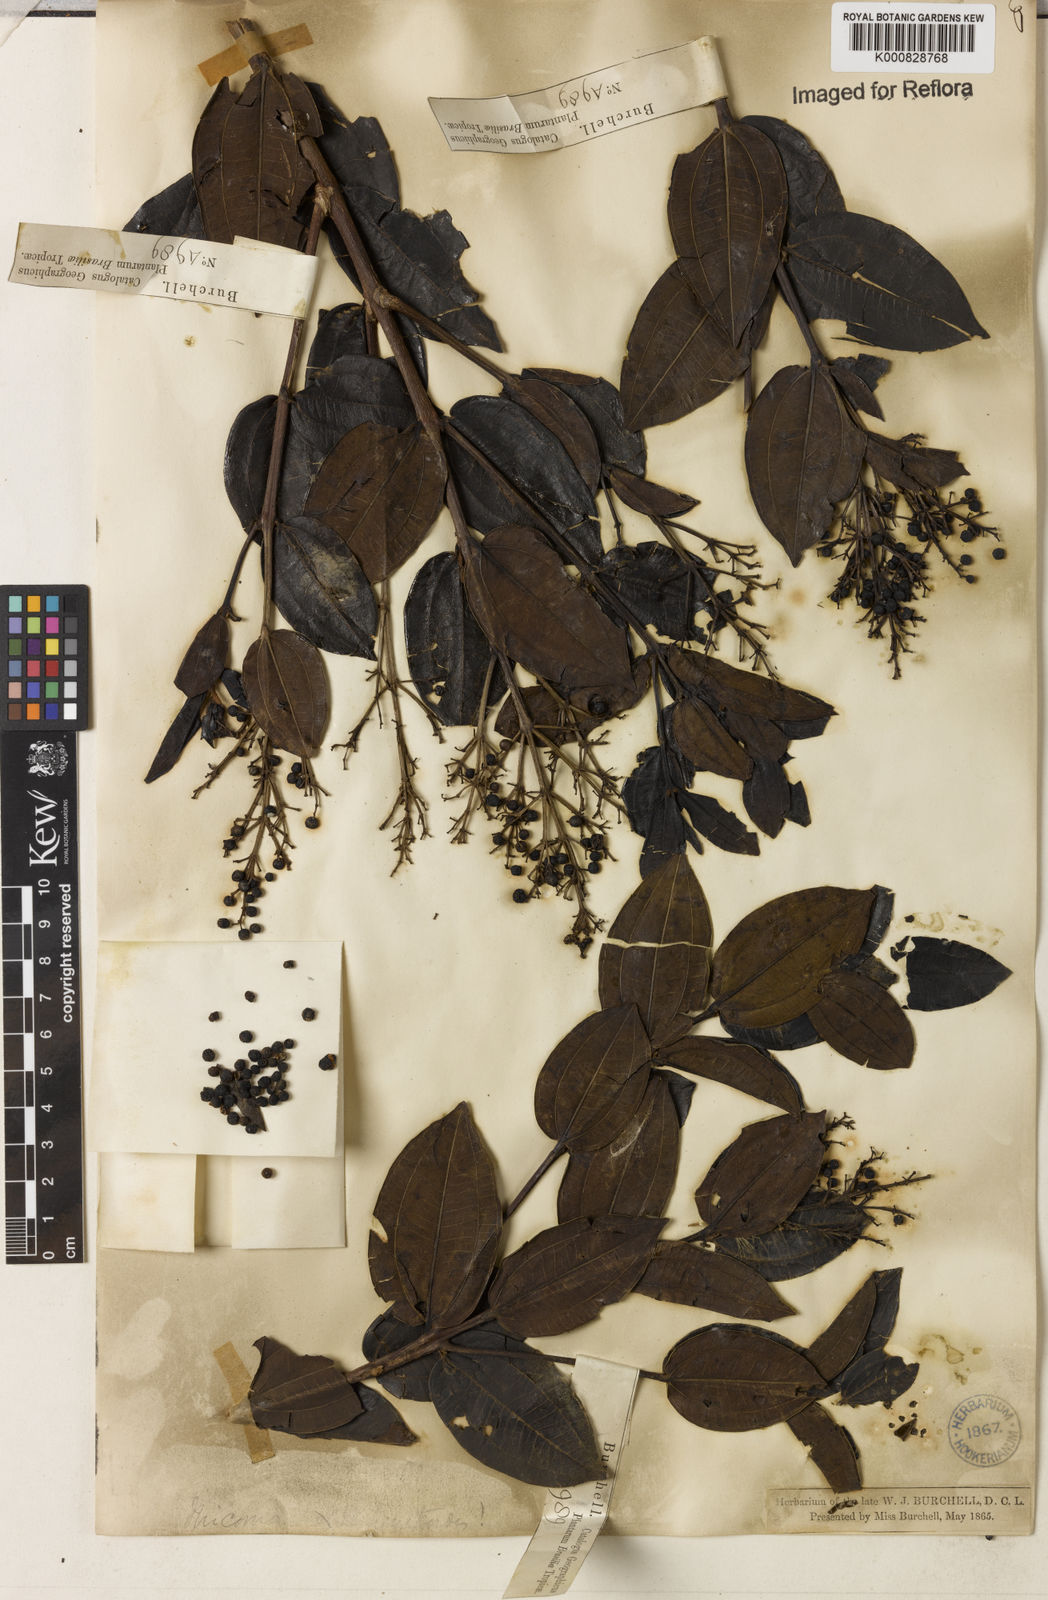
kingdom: Plantae
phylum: Tracheophyta
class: Magnoliopsida
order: Myrtales
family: Melastomataceae
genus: Miconia
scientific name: Miconia ligustroides
